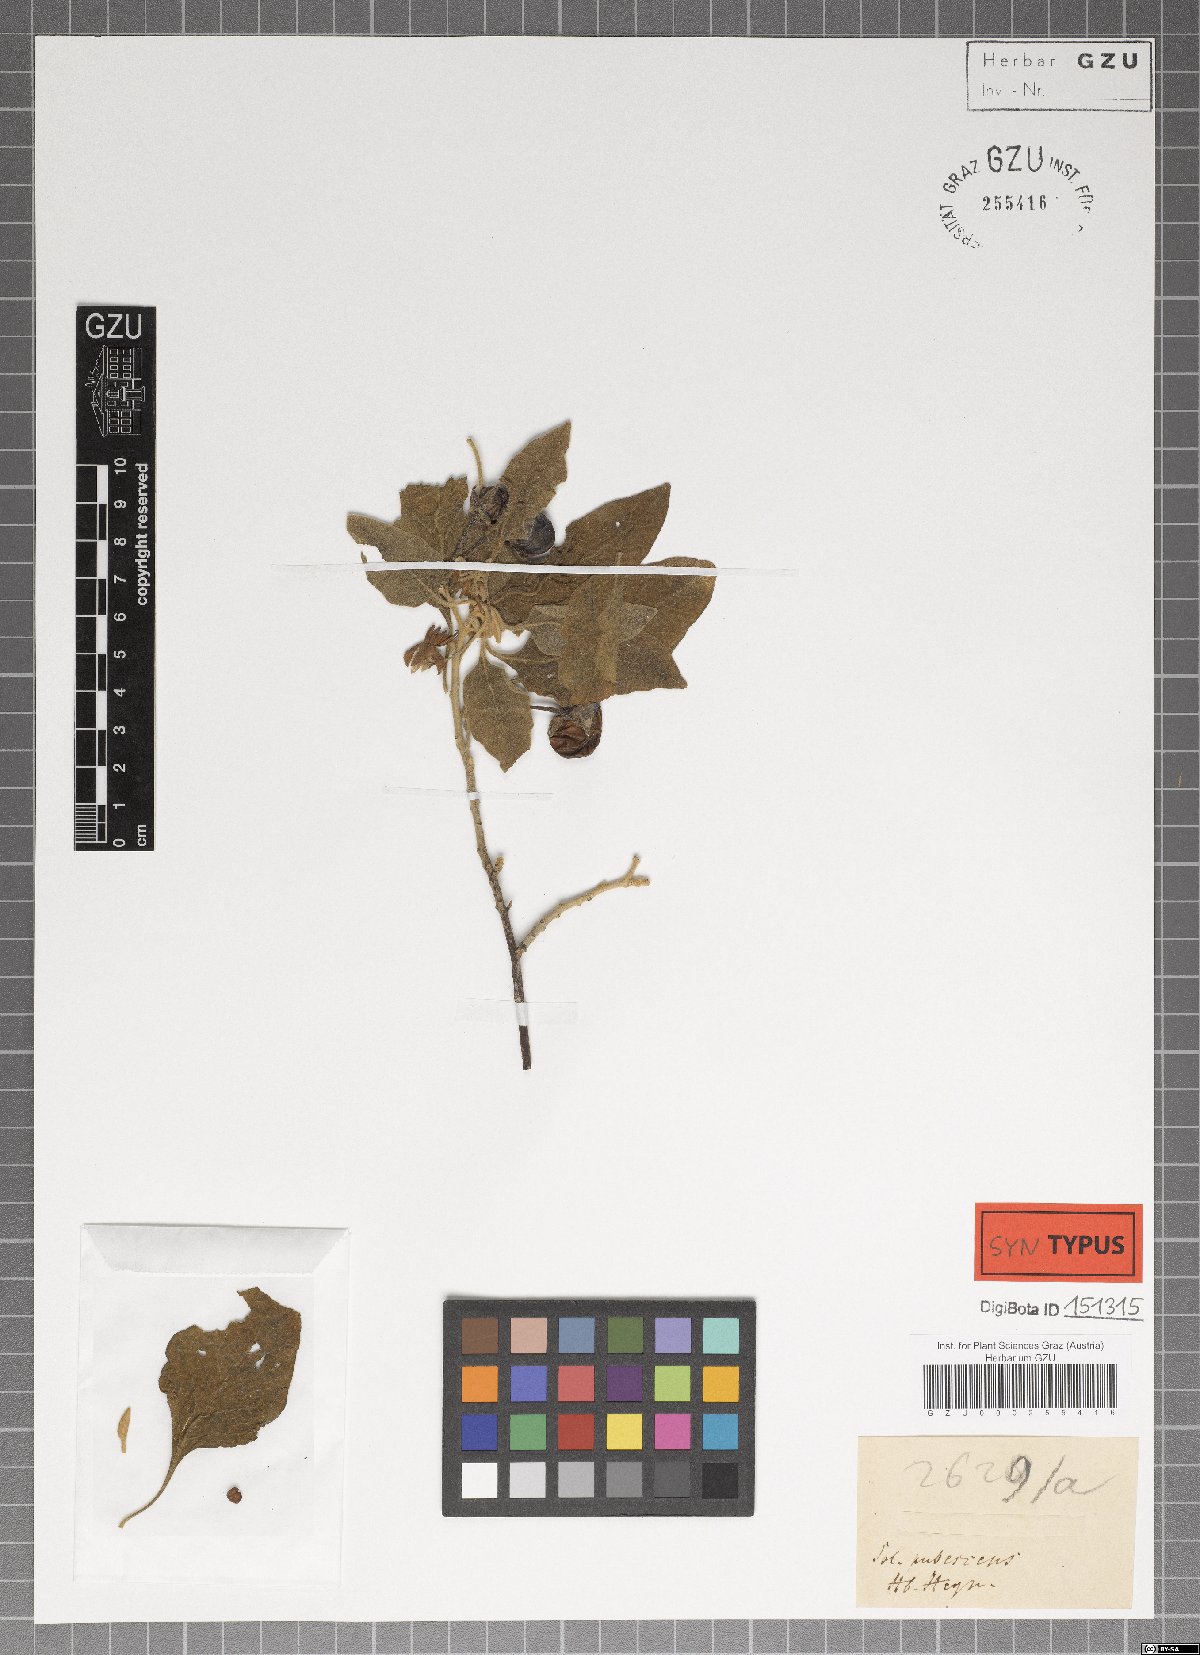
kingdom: Plantae
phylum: Tracheophyta
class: Magnoliopsida
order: Solanales
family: Solanaceae
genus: Solanum
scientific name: Solanum insanum
